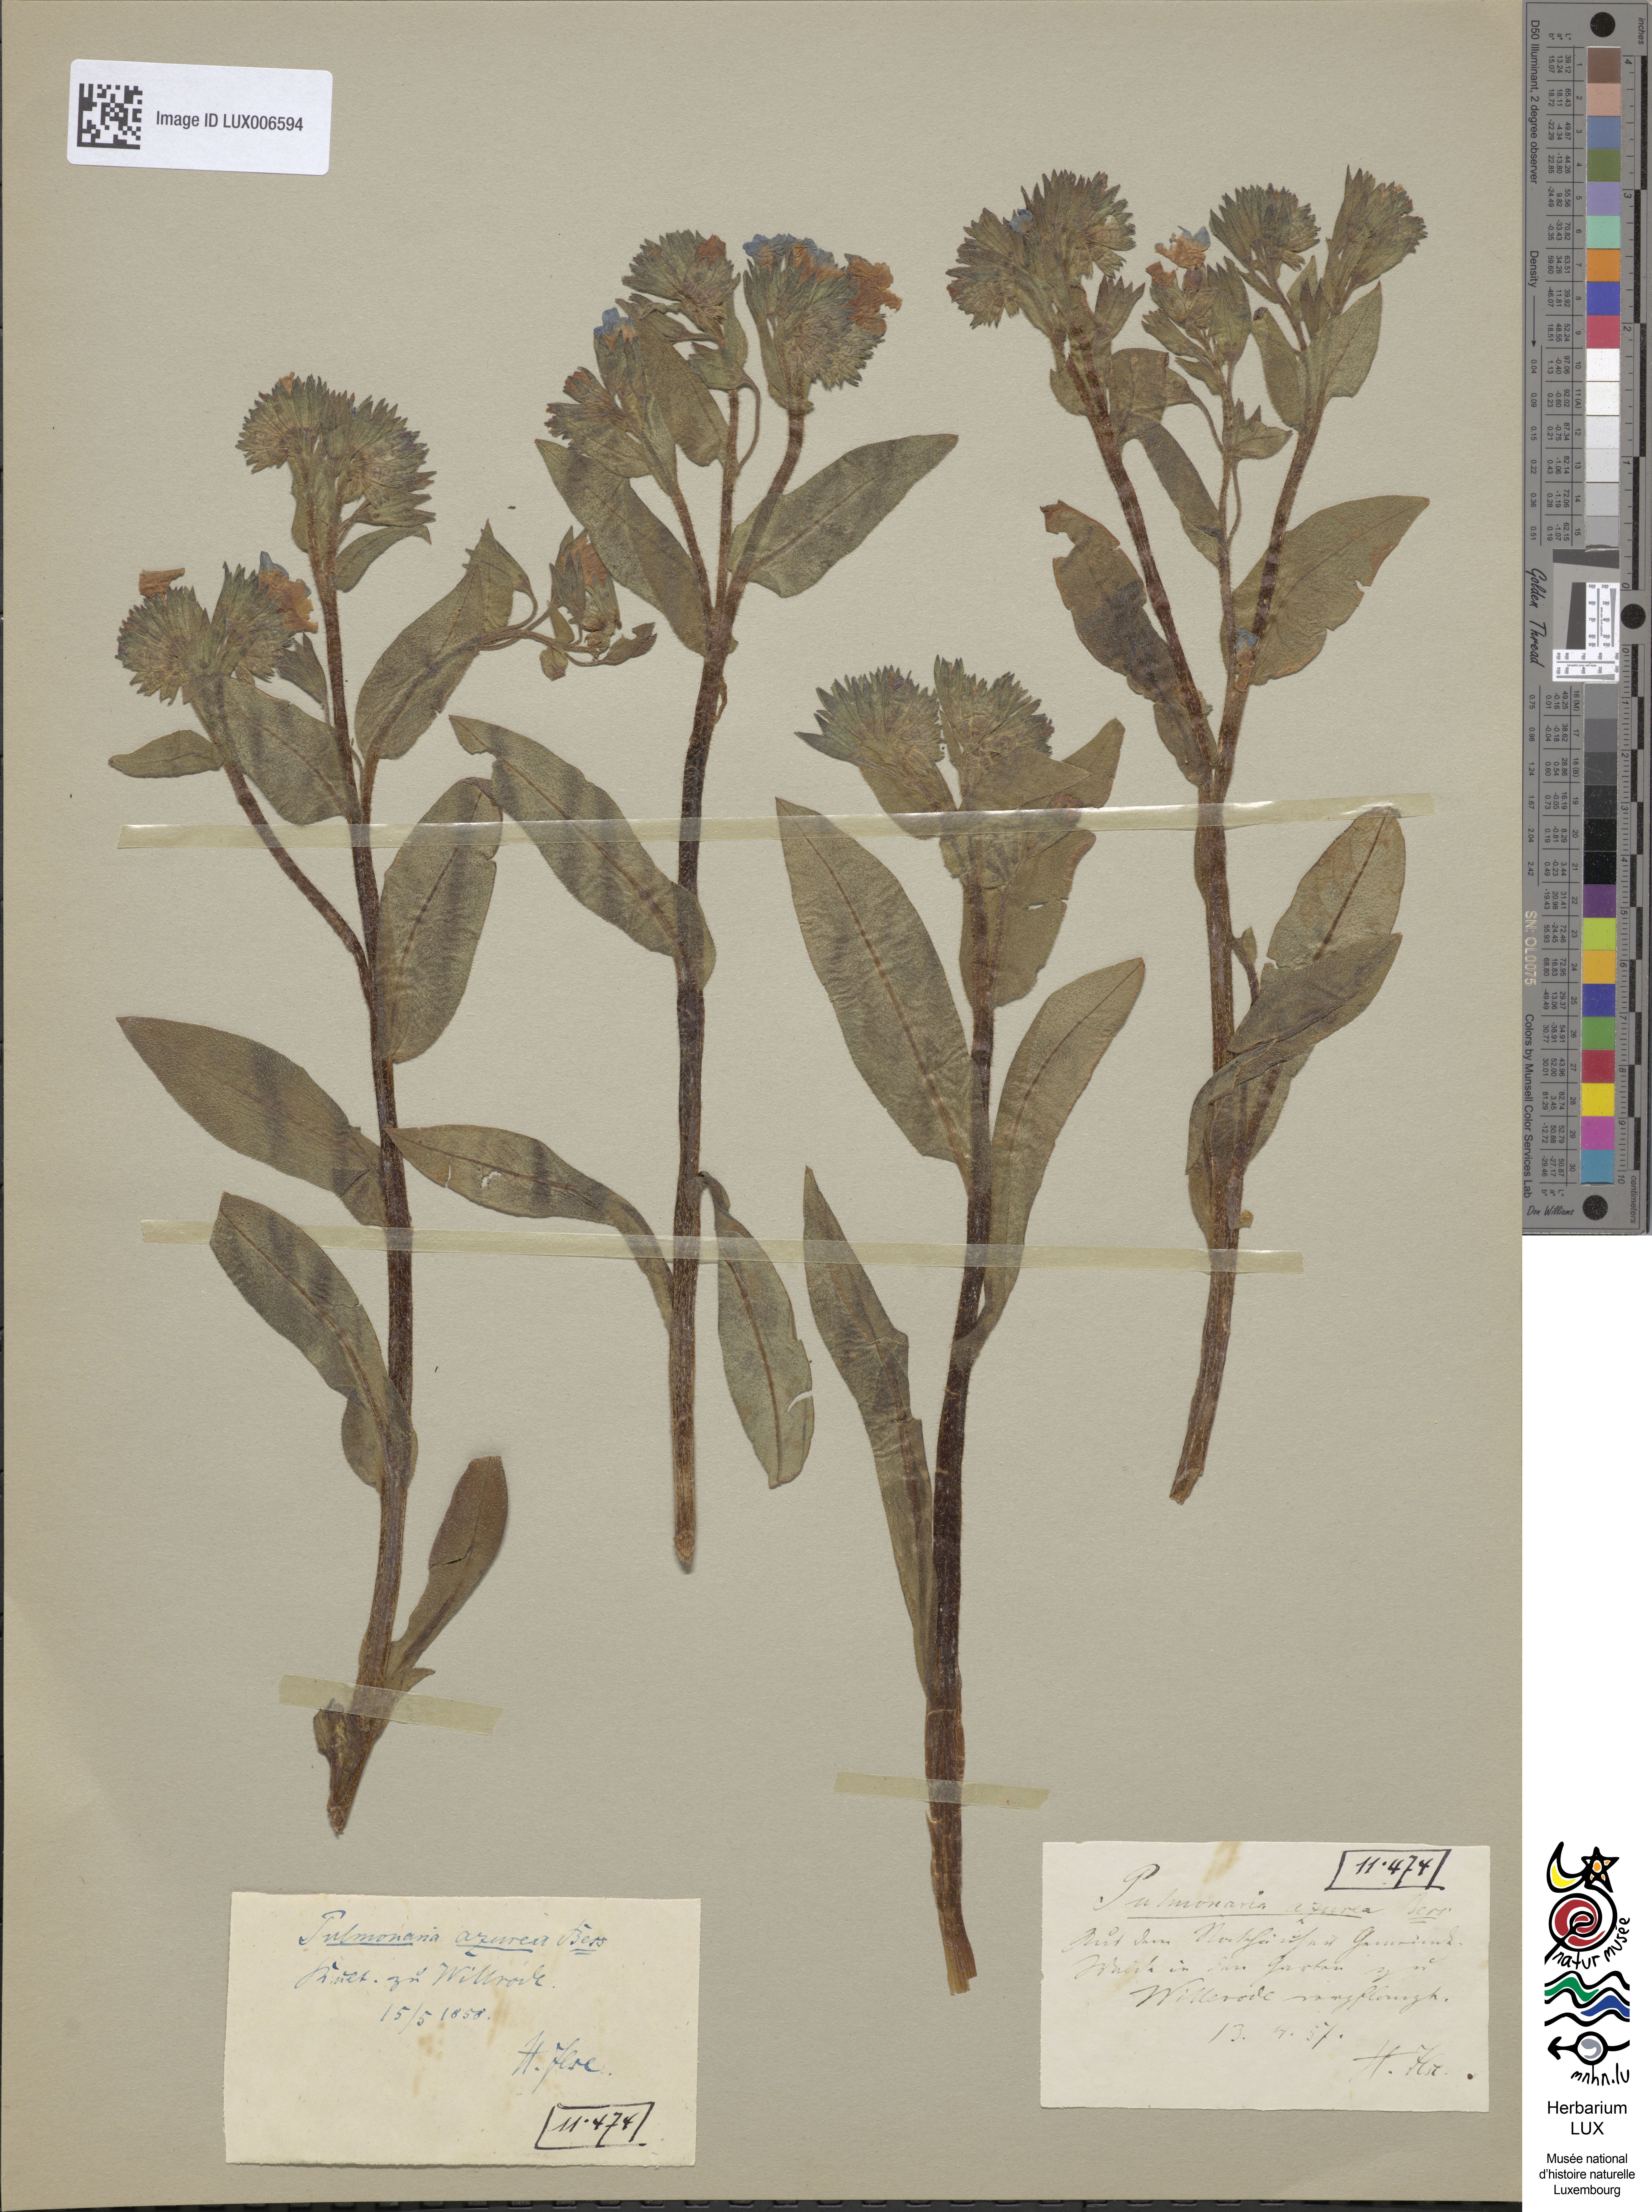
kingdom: Plantae
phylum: Tracheophyta
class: Magnoliopsida
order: Boraginales
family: Boraginaceae
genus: Pulmonaria
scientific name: Pulmonaria angustifolia
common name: Blue cowslip
